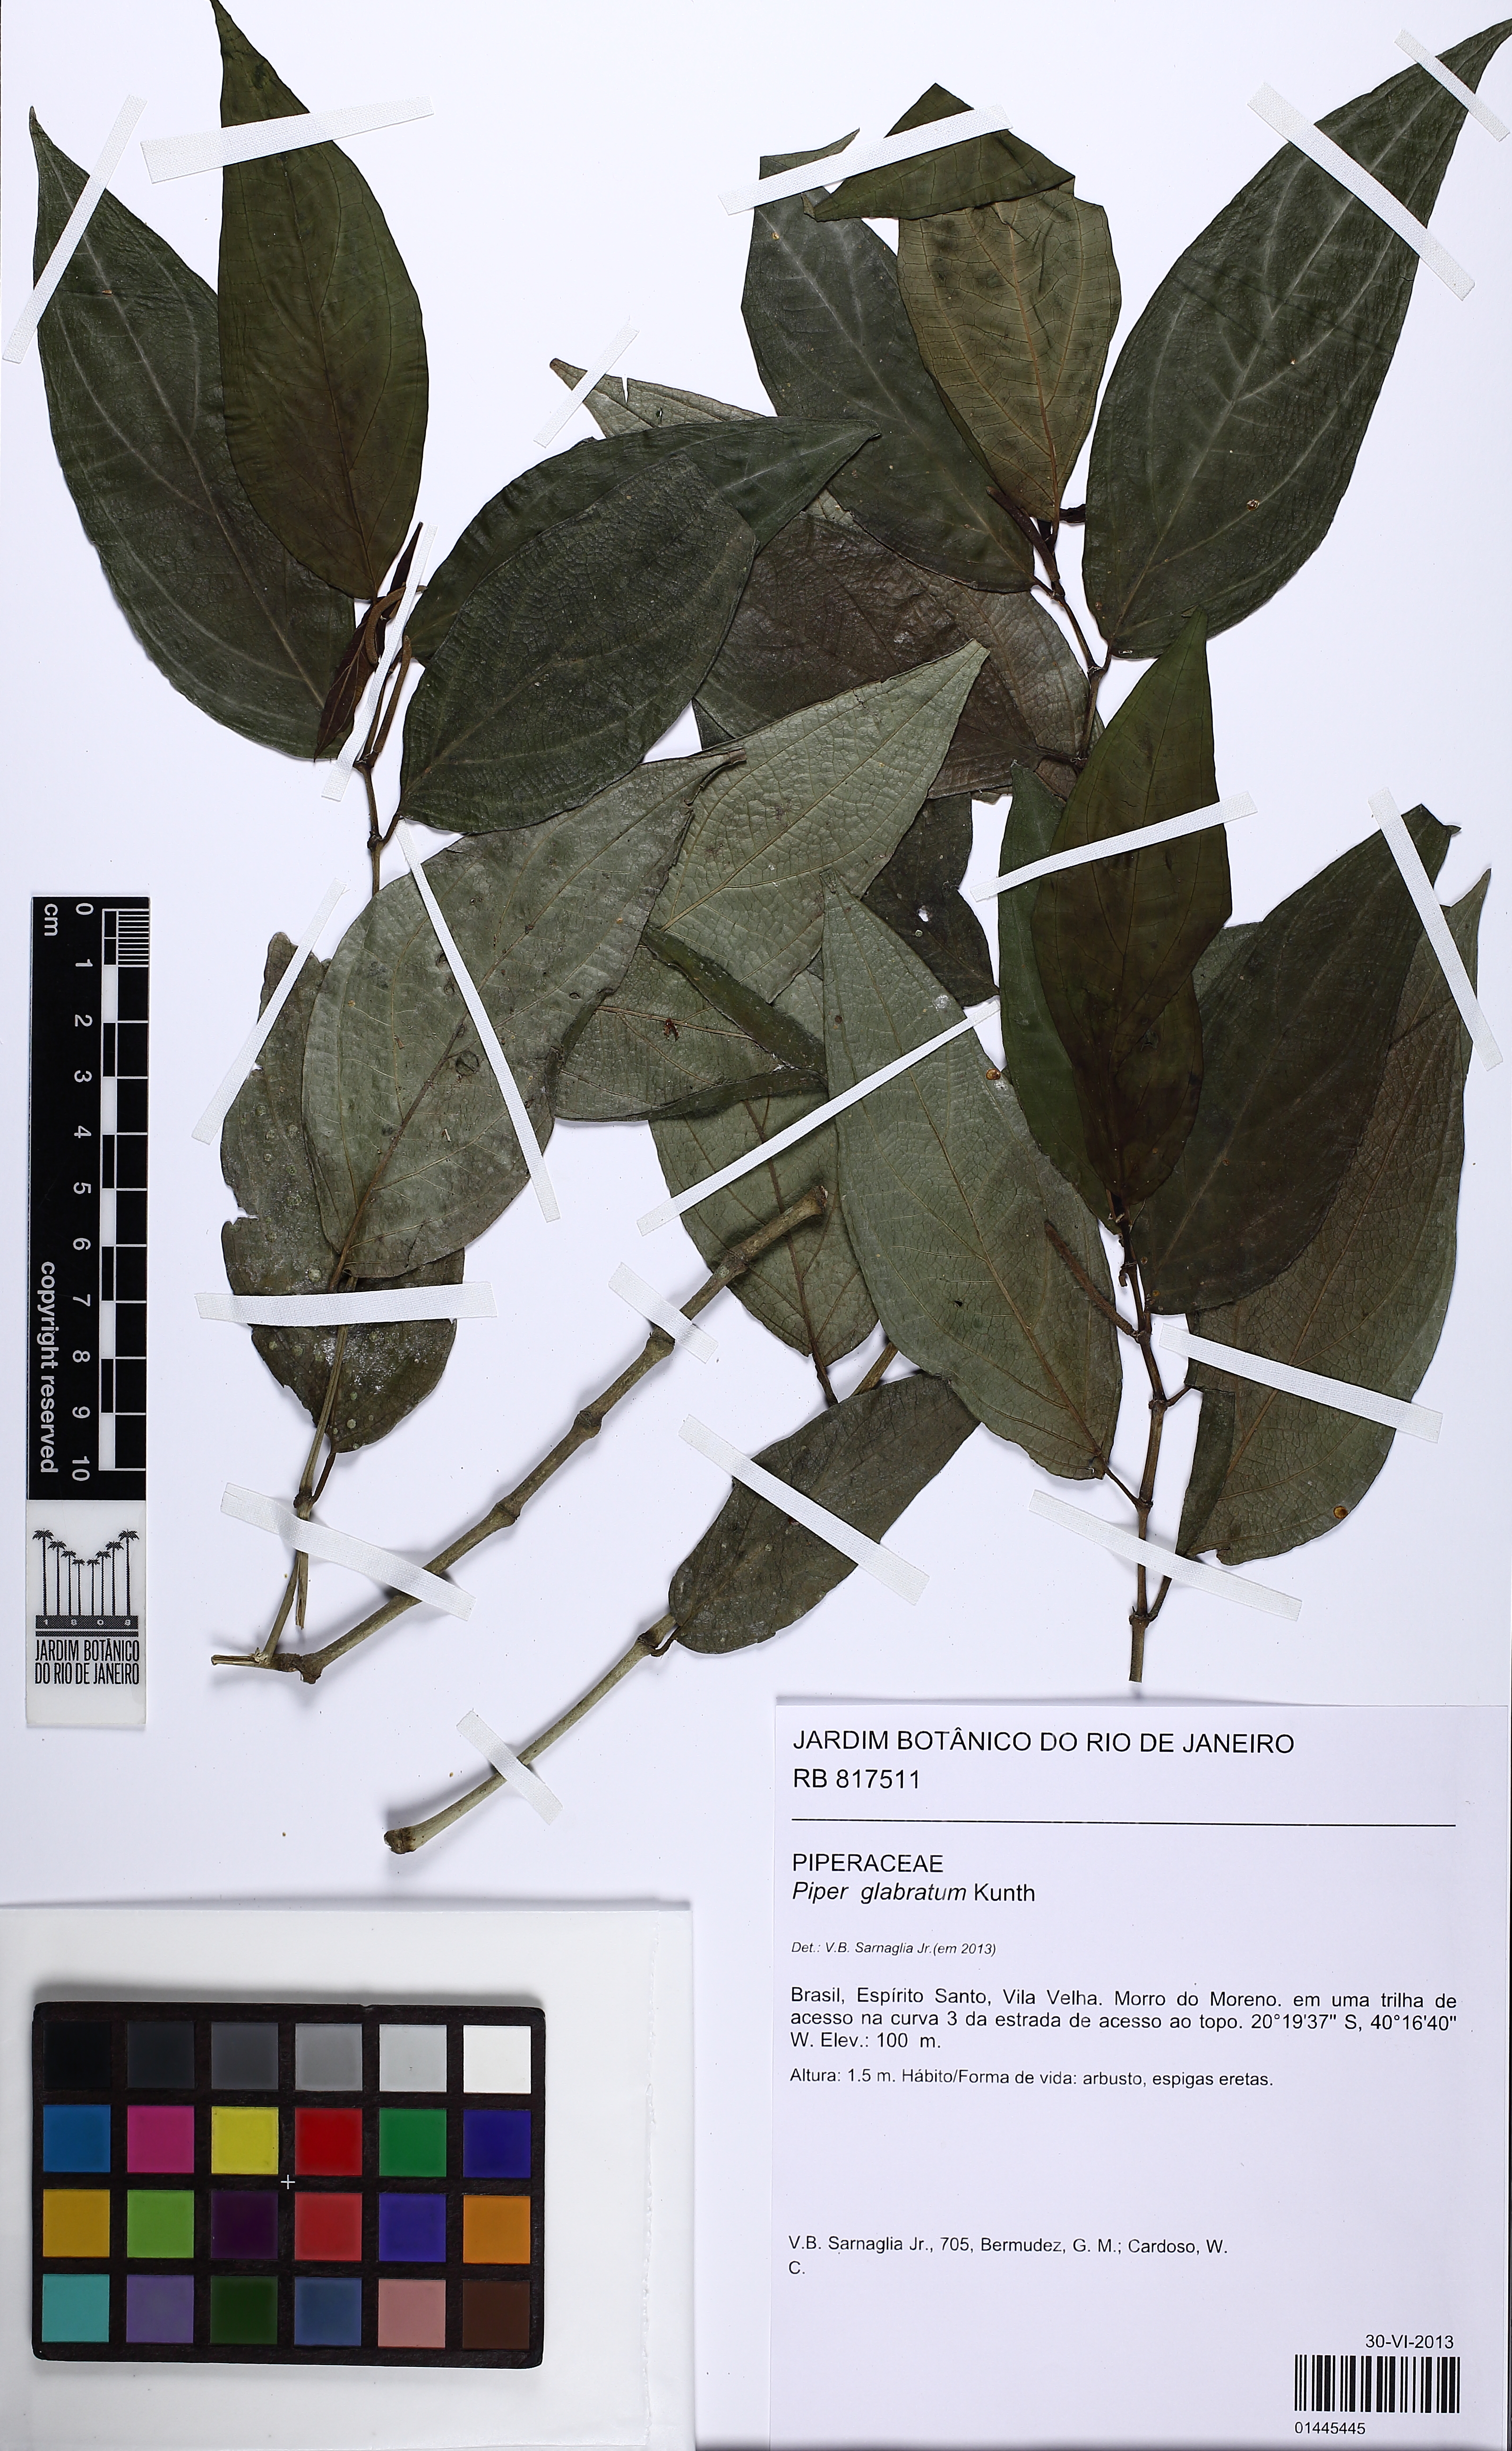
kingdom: Plantae
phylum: Tracheophyta
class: Magnoliopsida
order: Piperales
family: Piperaceae
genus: Piper
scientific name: Piper glabratum
